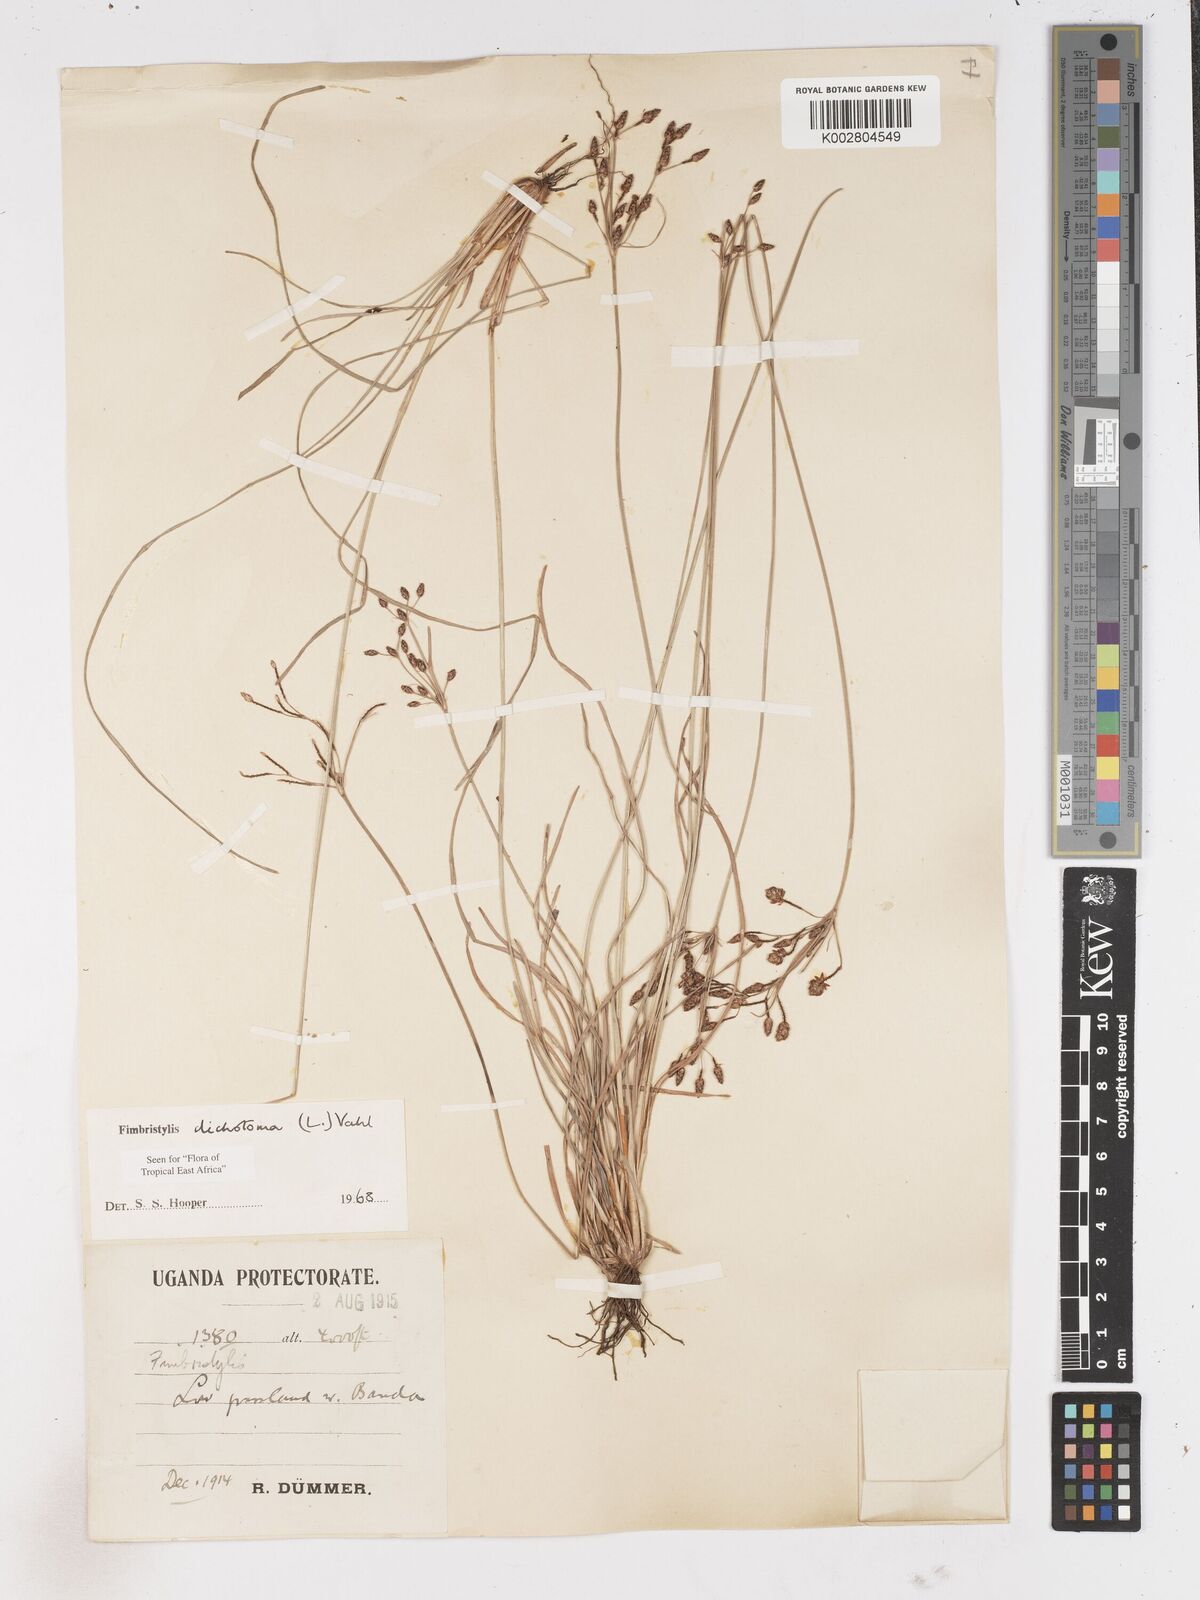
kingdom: Plantae
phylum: Tracheophyta
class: Liliopsida
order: Poales
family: Cyperaceae
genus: Fimbristylis
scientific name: Fimbristylis dichotoma
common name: Forked fimbry
